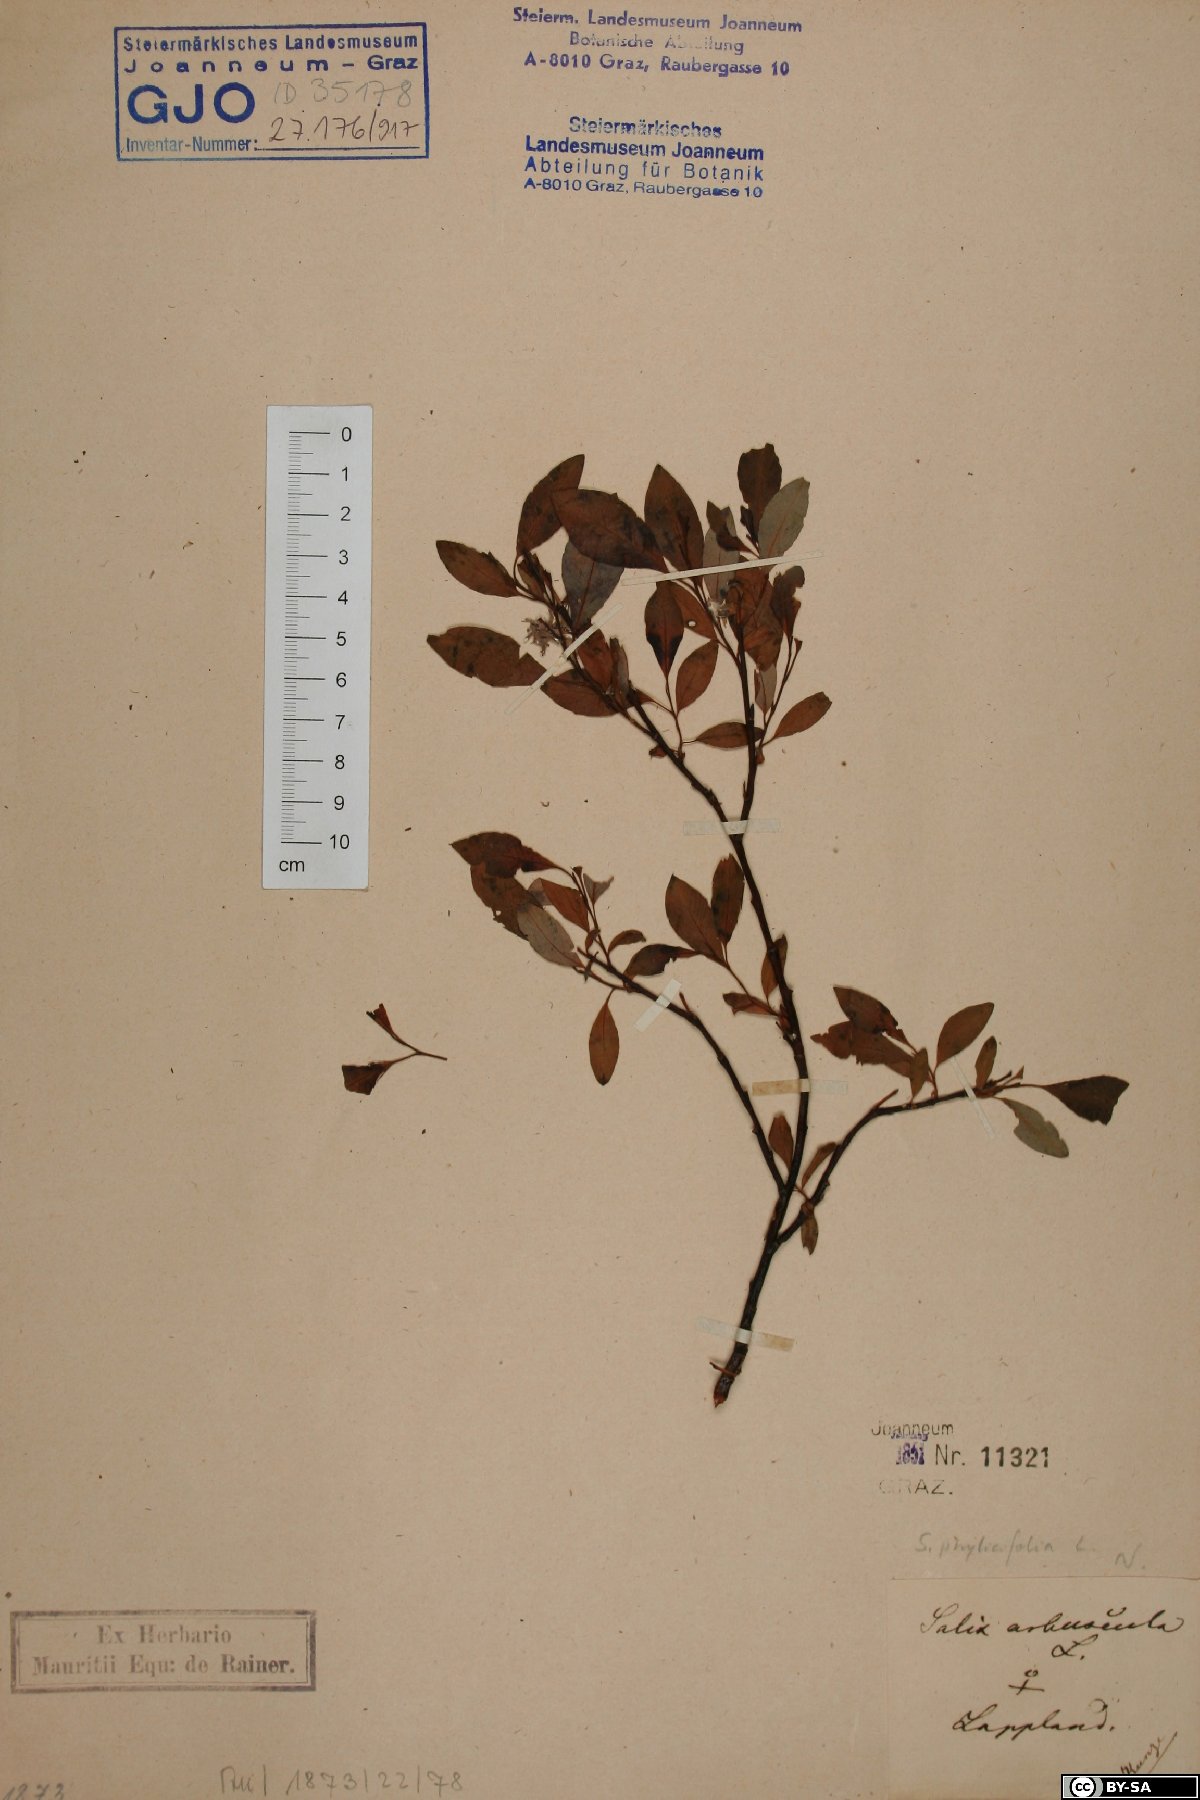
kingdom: Plantae
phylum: Tracheophyta
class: Magnoliopsida
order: Malpighiales
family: Salicaceae
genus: Salix
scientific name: Salix phylicifolia
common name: Tea-leaved willow
